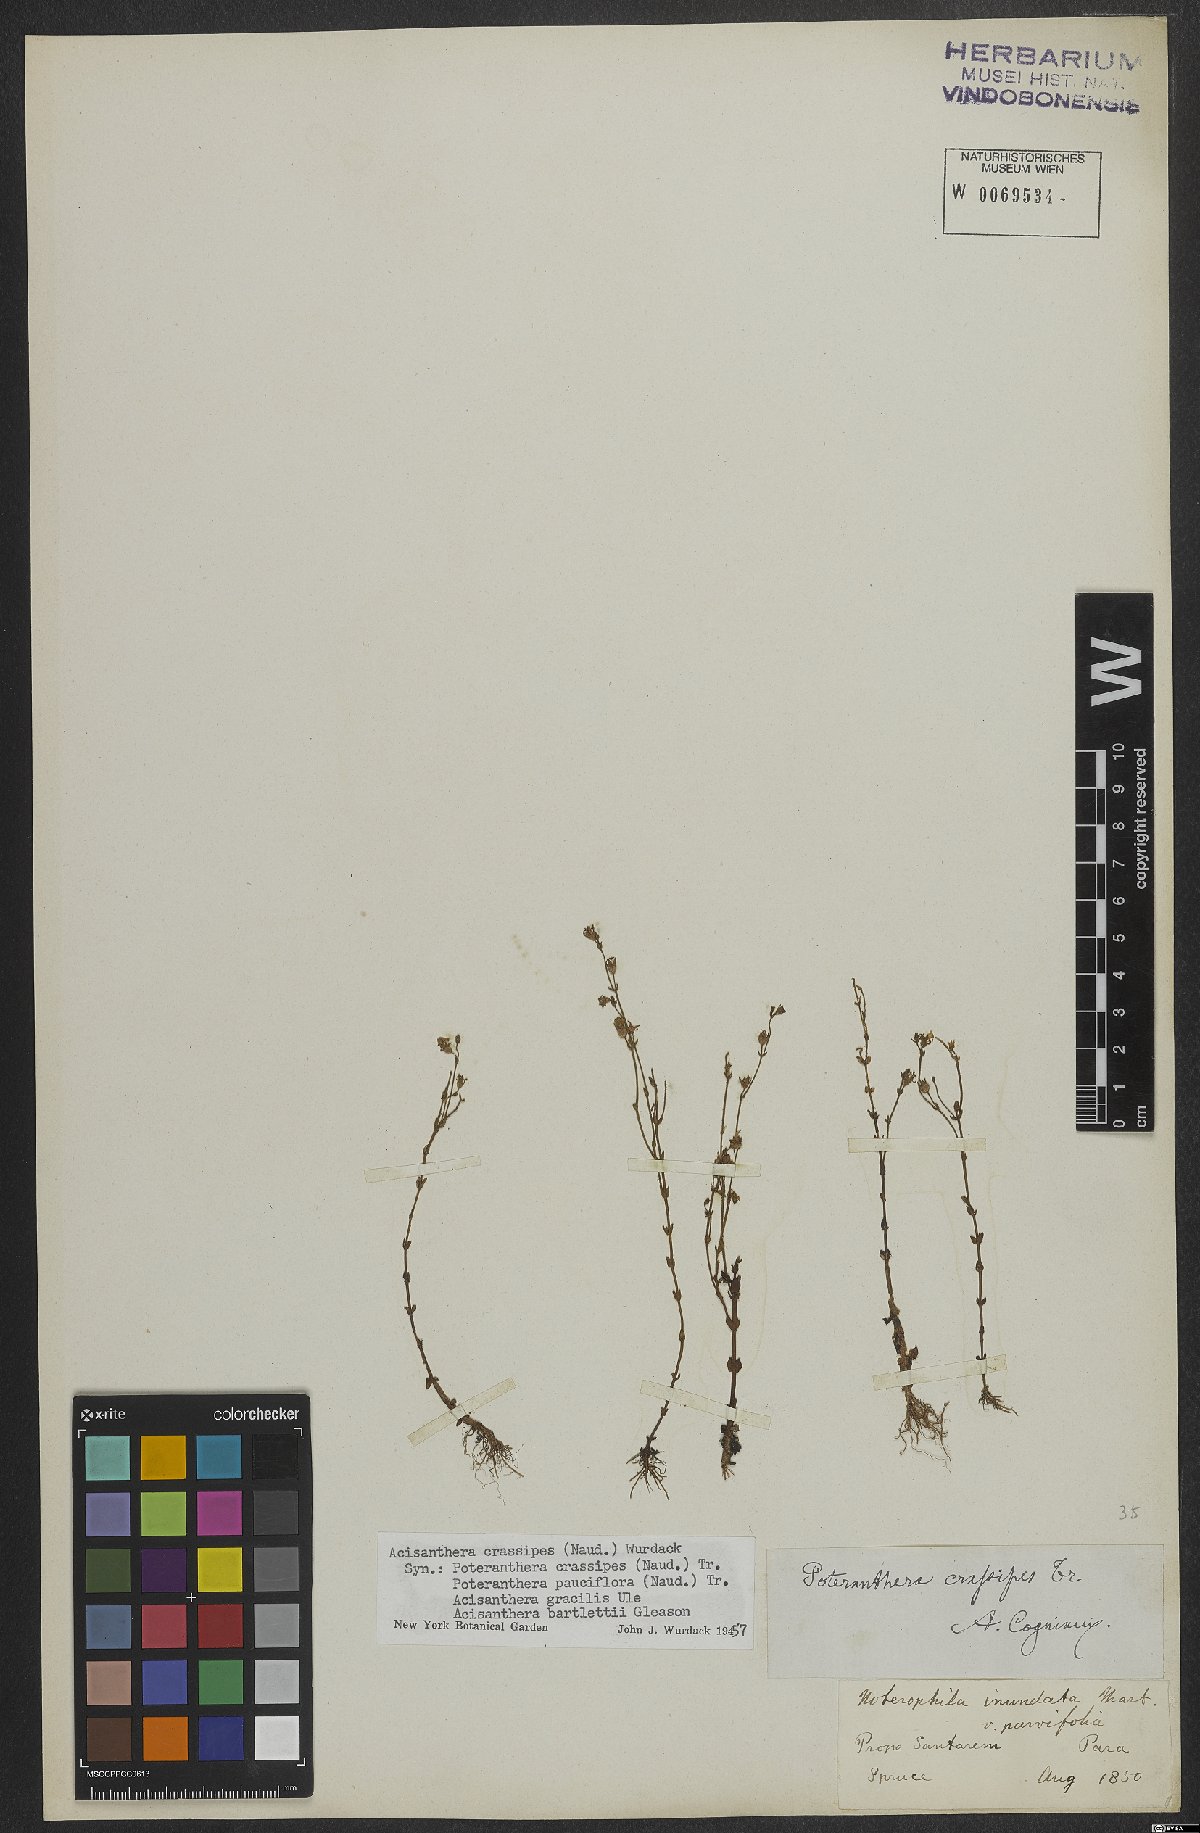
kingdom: Plantae
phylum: Tracheophyta
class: Magnoliopsida
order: Myrtales
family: Melastomataceae
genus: Noterophila
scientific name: Noterophila crassipes
